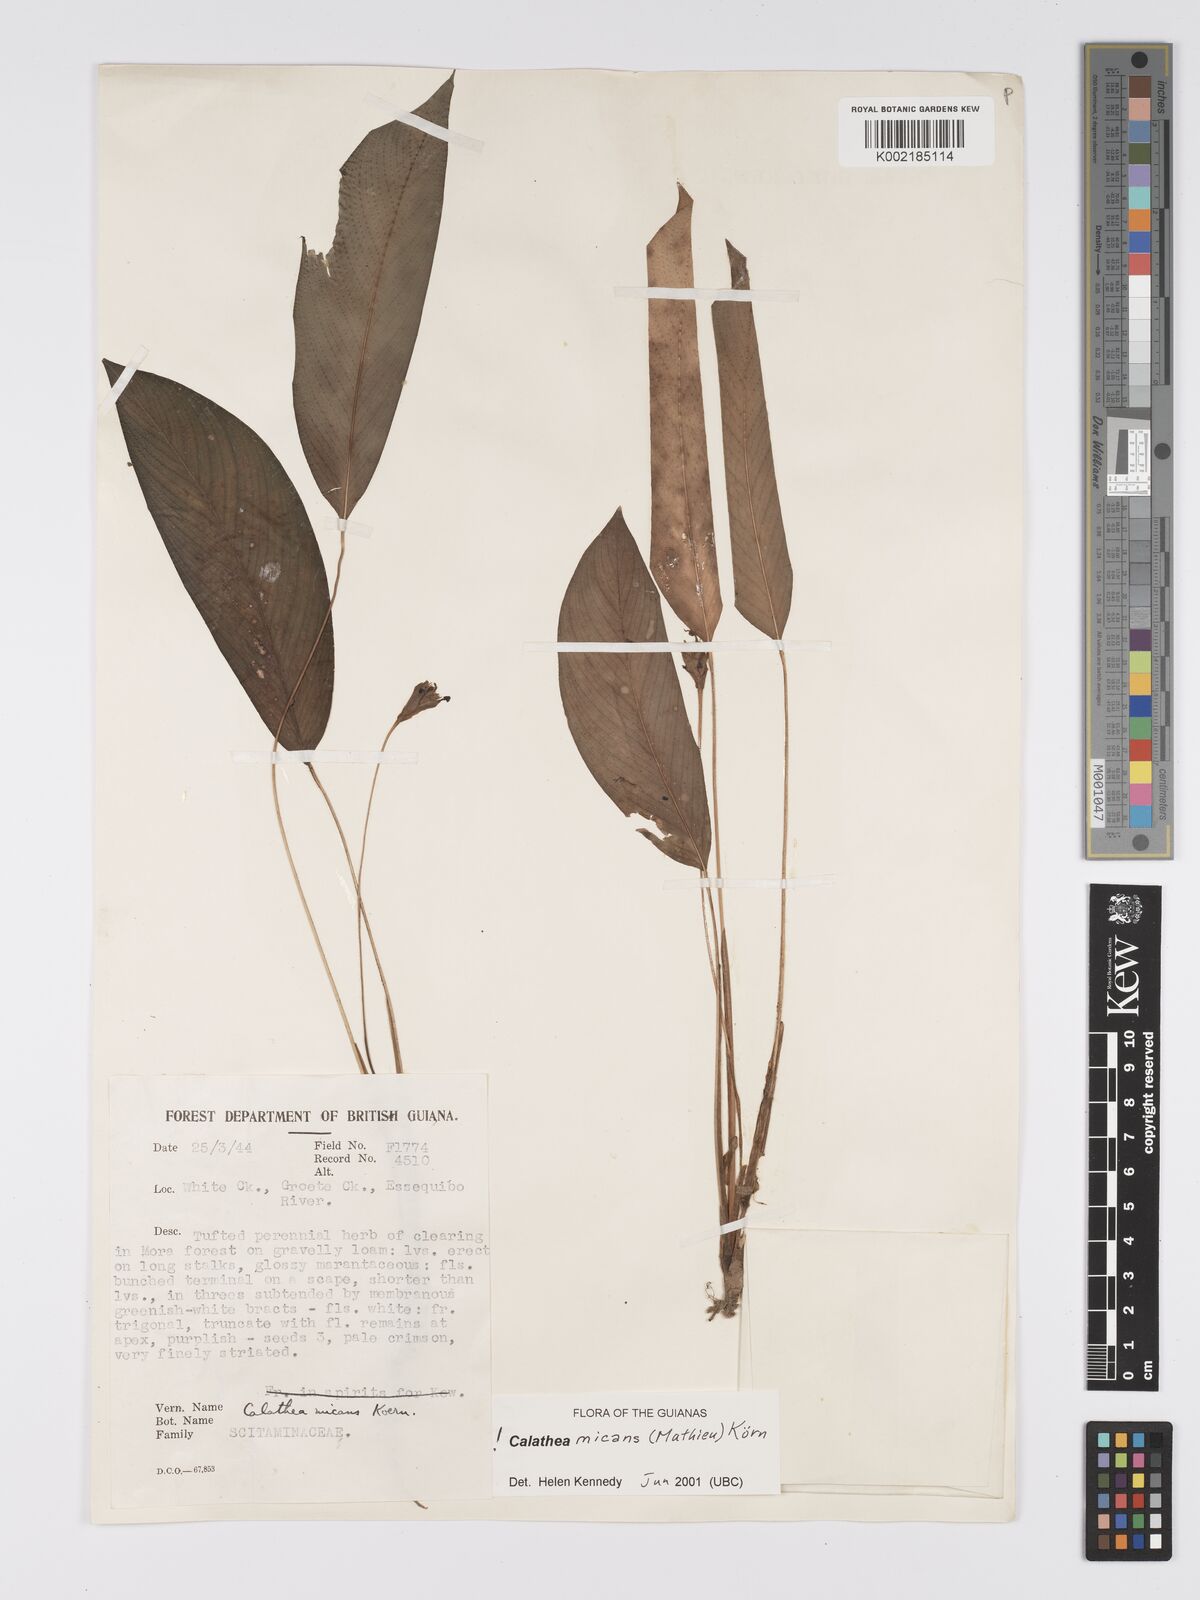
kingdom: Plantae
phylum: Tracheophyta
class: Liliopsida
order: Zingiberales
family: Marantaceae
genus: Goeppertia
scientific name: Goeppertia micans
